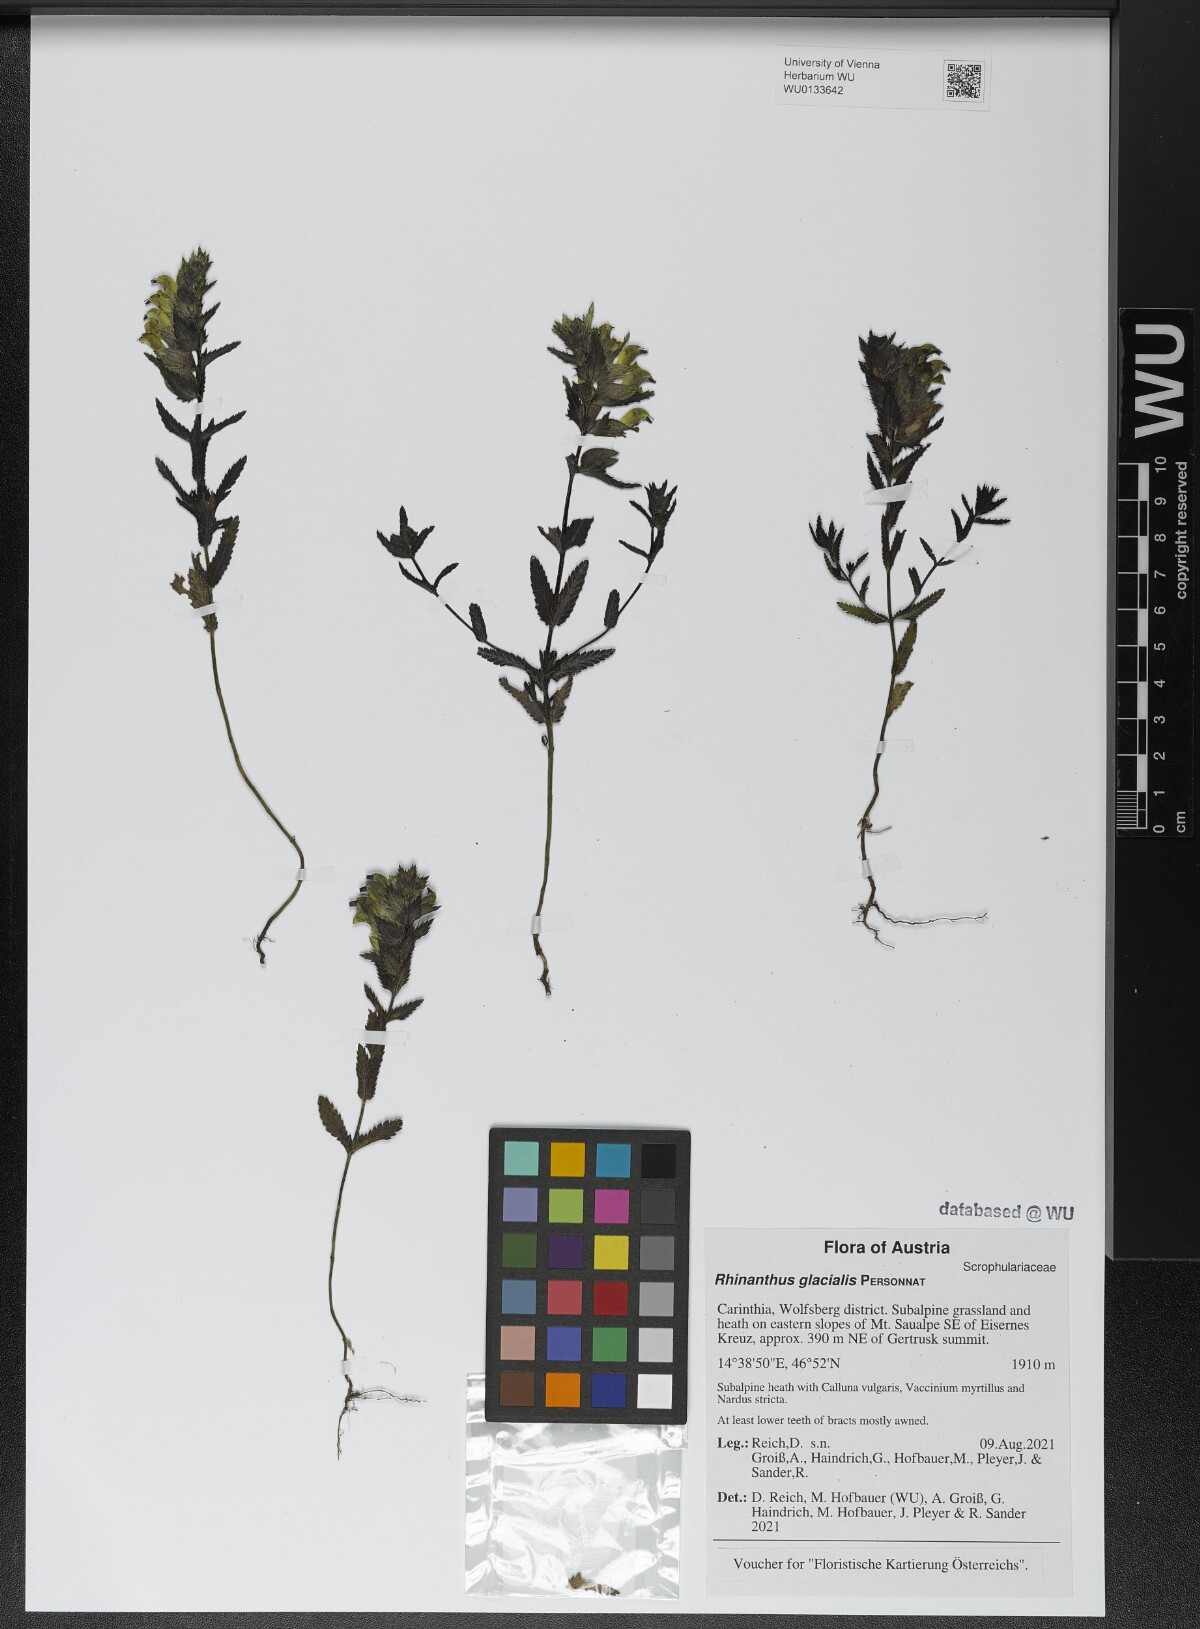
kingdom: Plantae
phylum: Tracheophyta
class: Magnoliopsida
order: Lamiales
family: Orobanchaceae
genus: Rhinanthus
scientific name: Rhinanthus glacialis
